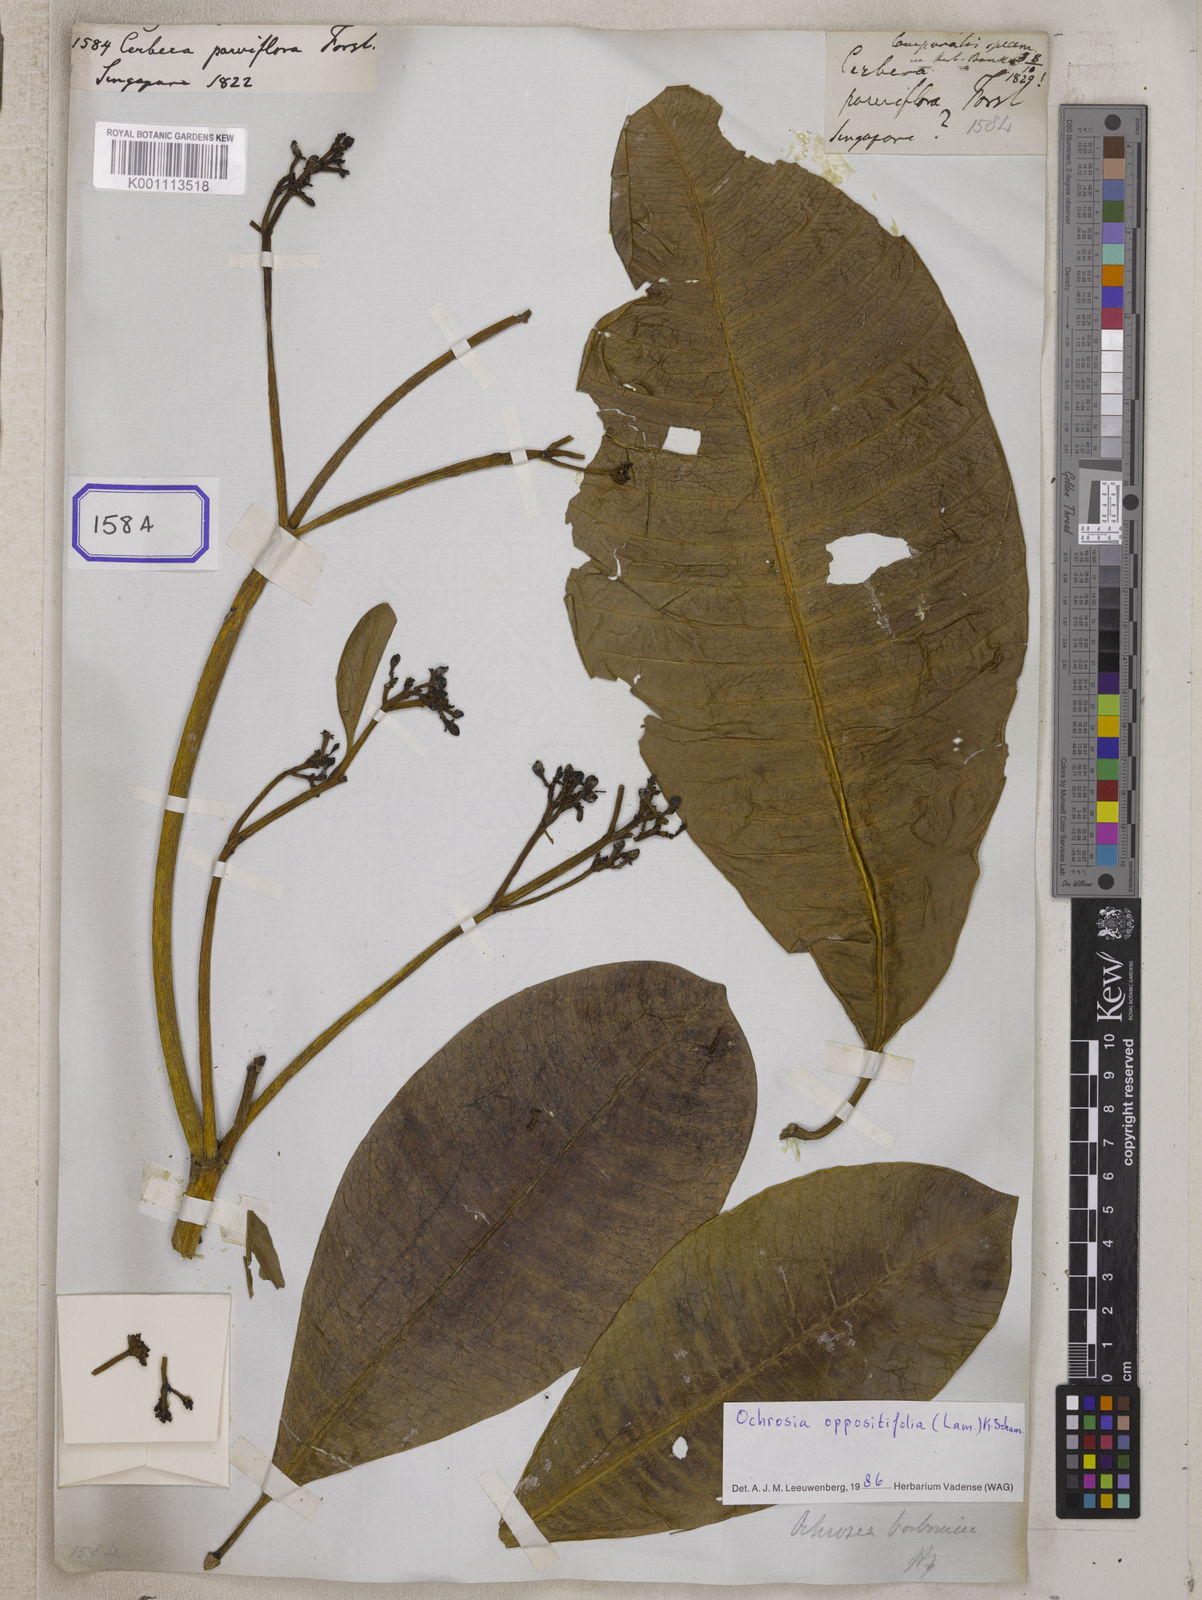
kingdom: Plantae
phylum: Tracheophyta
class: Magnoliopsida
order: Gentianales
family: Apocynaceae
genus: Ochrosia
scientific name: Ochrosia oppositifolia
